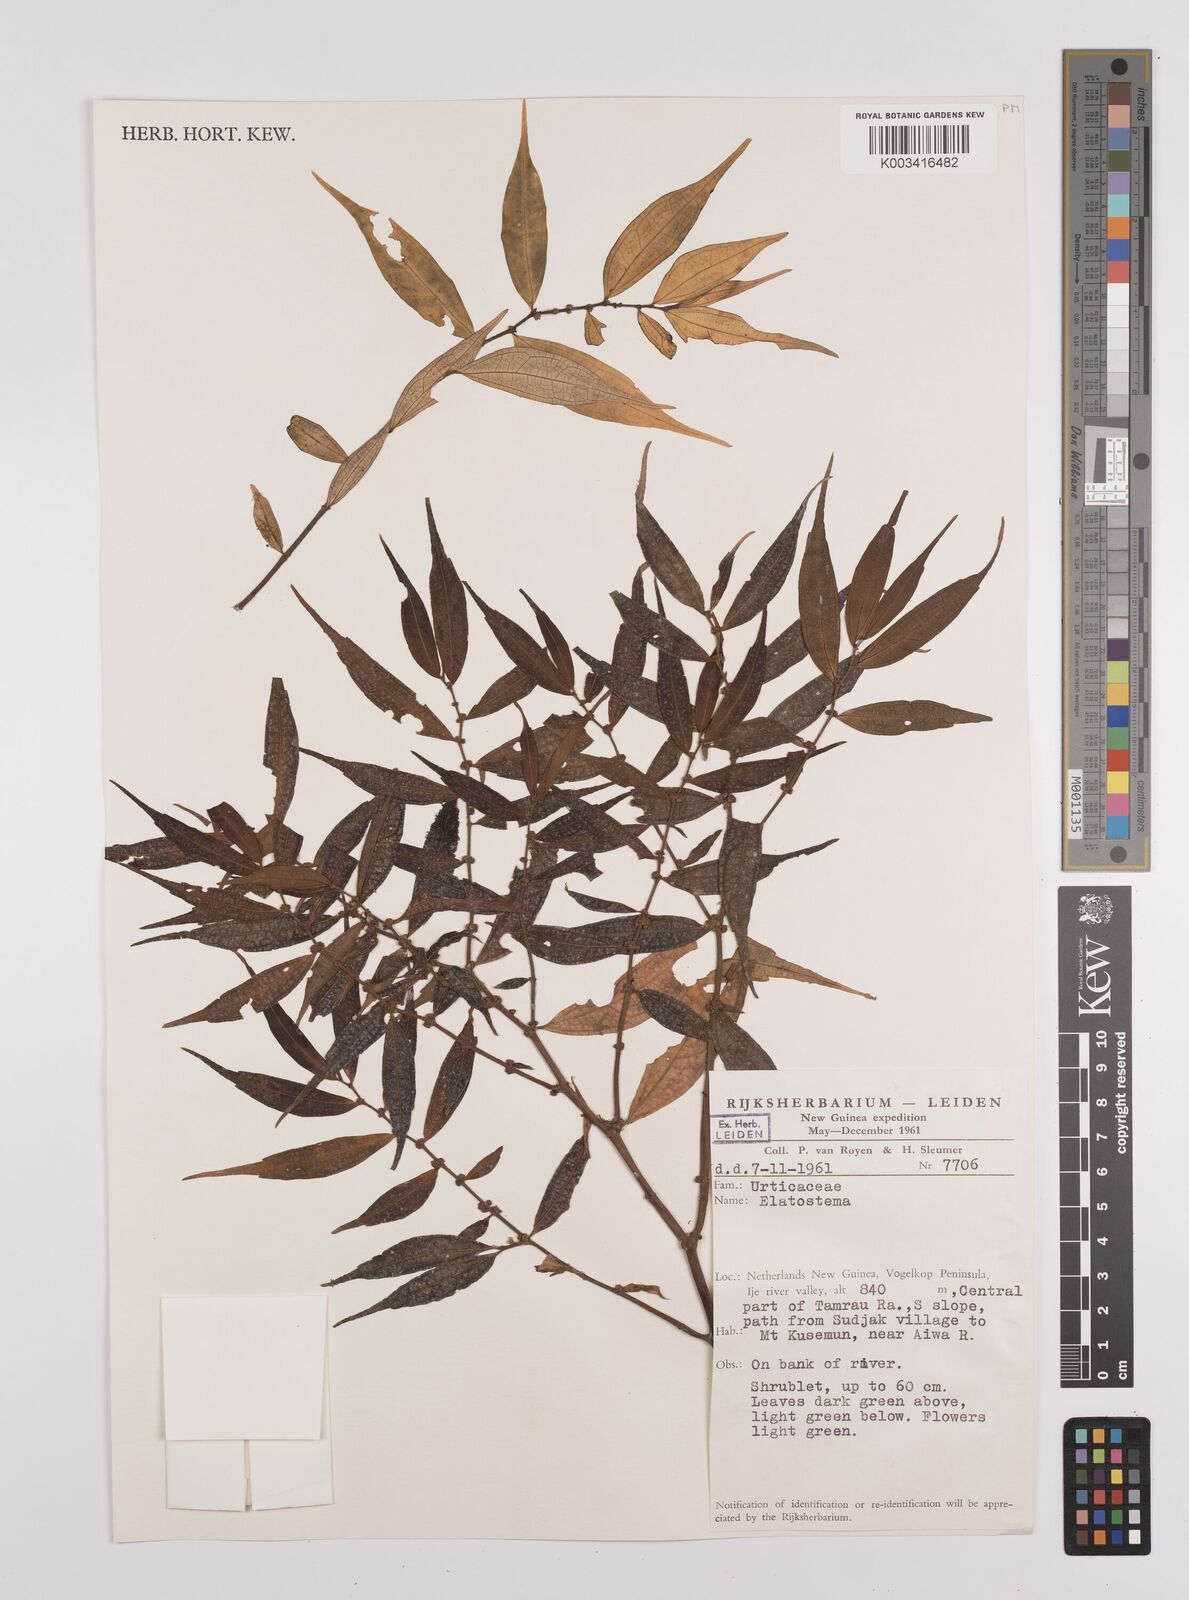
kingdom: Plantae
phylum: Tracheophyta
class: Magnoliopsida
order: Rosales
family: Urticaceae
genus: Elatostema
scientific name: Elatostema
